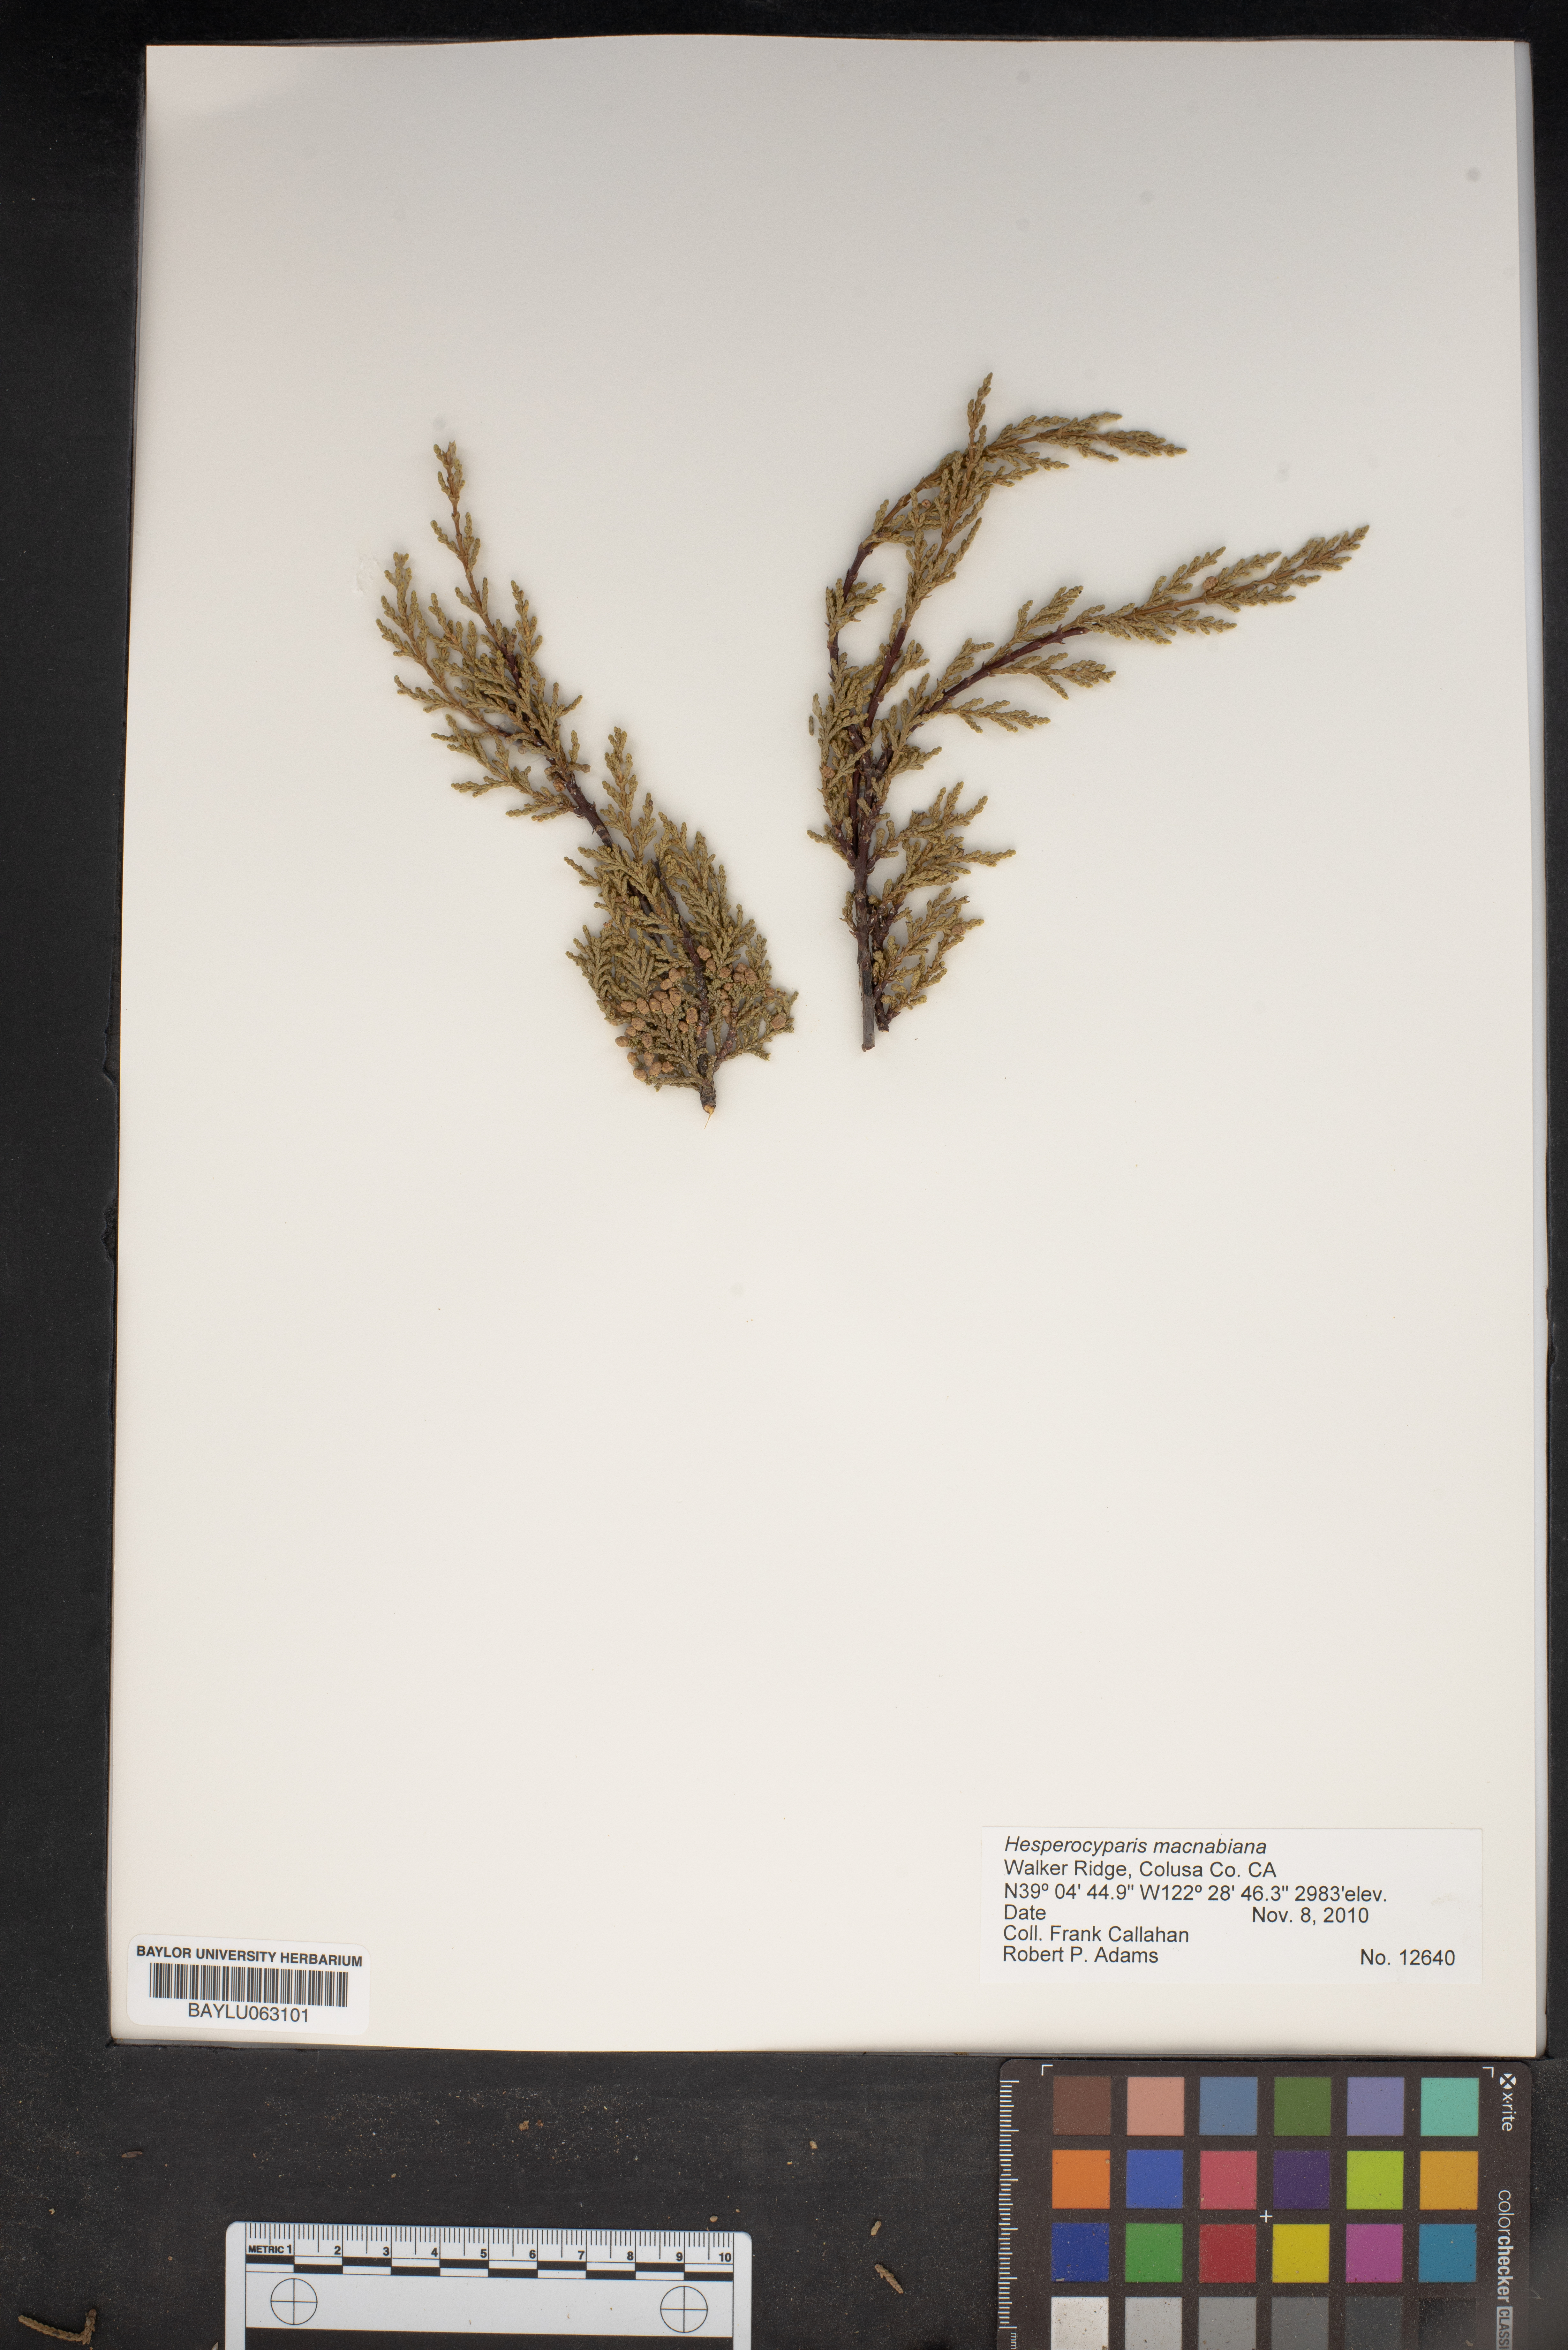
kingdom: Plantae
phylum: Tracheophyta
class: Pinopsida
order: Pinales
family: Cupressaceae
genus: Cupressus
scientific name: Cupressus macnabiana bis
